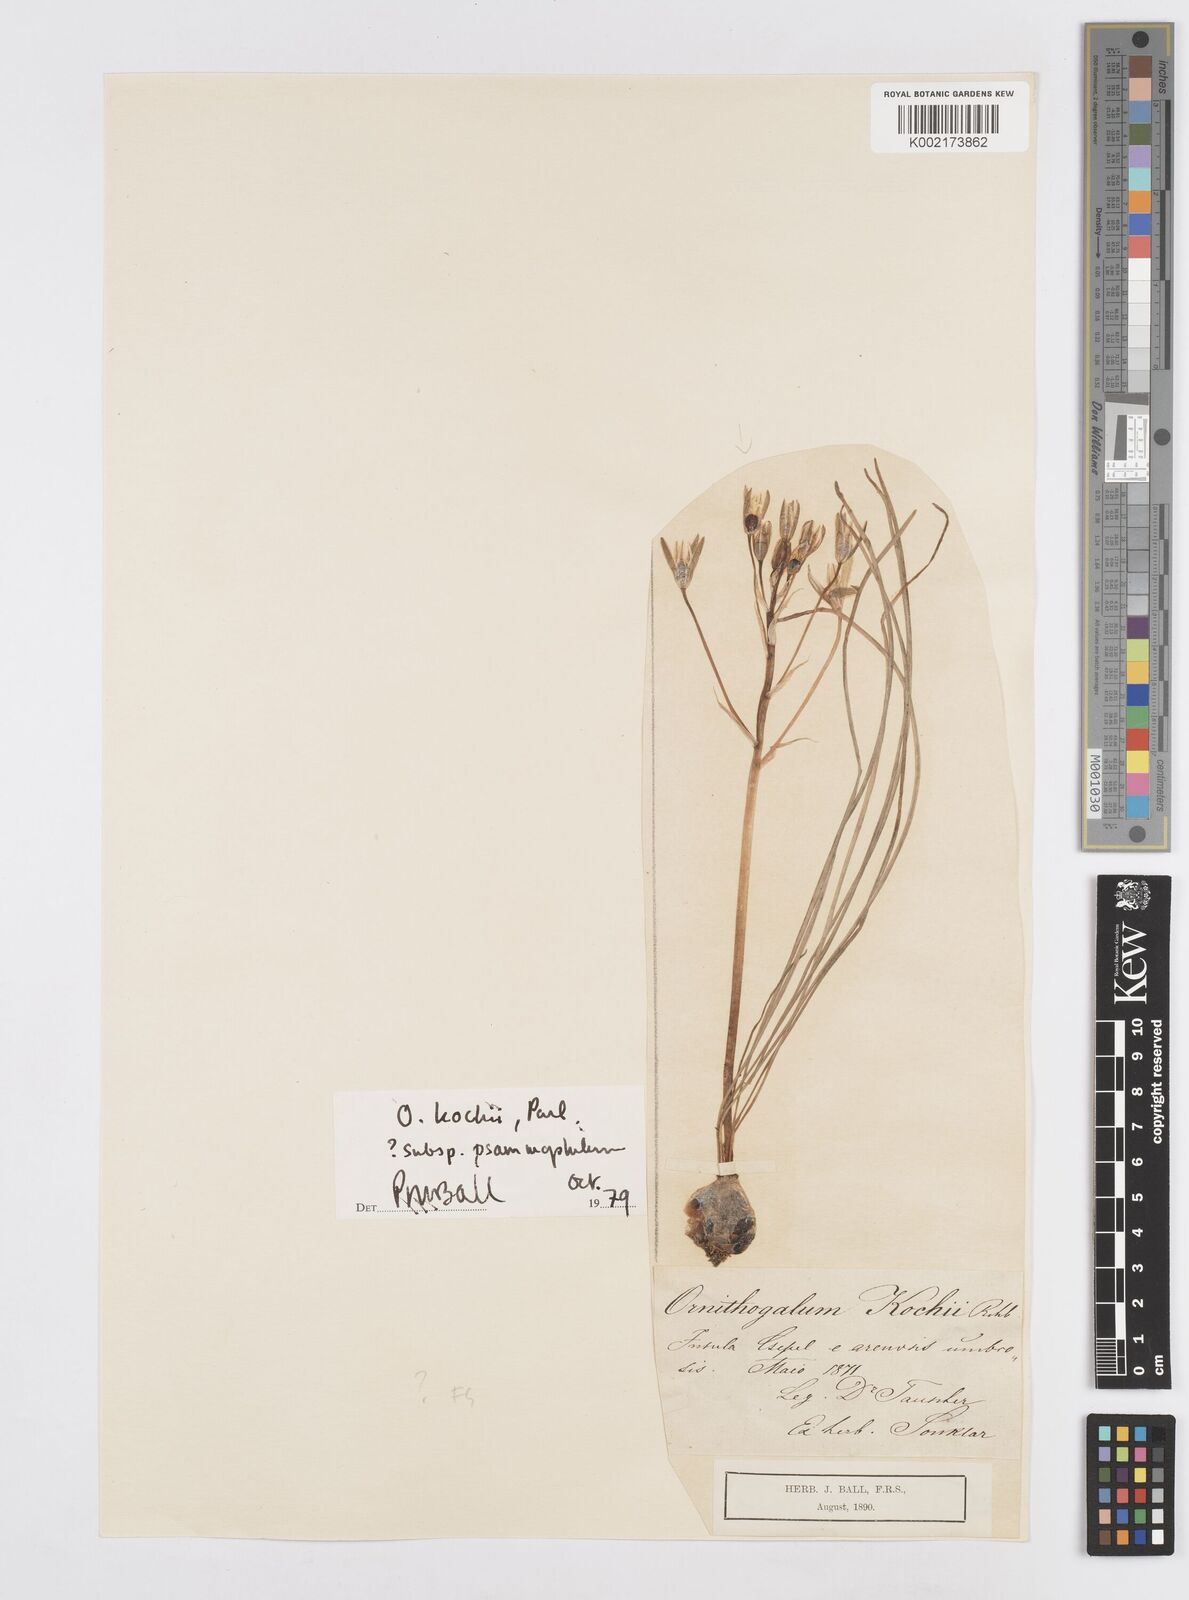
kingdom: Plantae
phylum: Tracheophyta
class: Liliopsida
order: Asparagales
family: Asparagaceae
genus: Ornithogalum
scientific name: Ornithogalum orthophyllum
